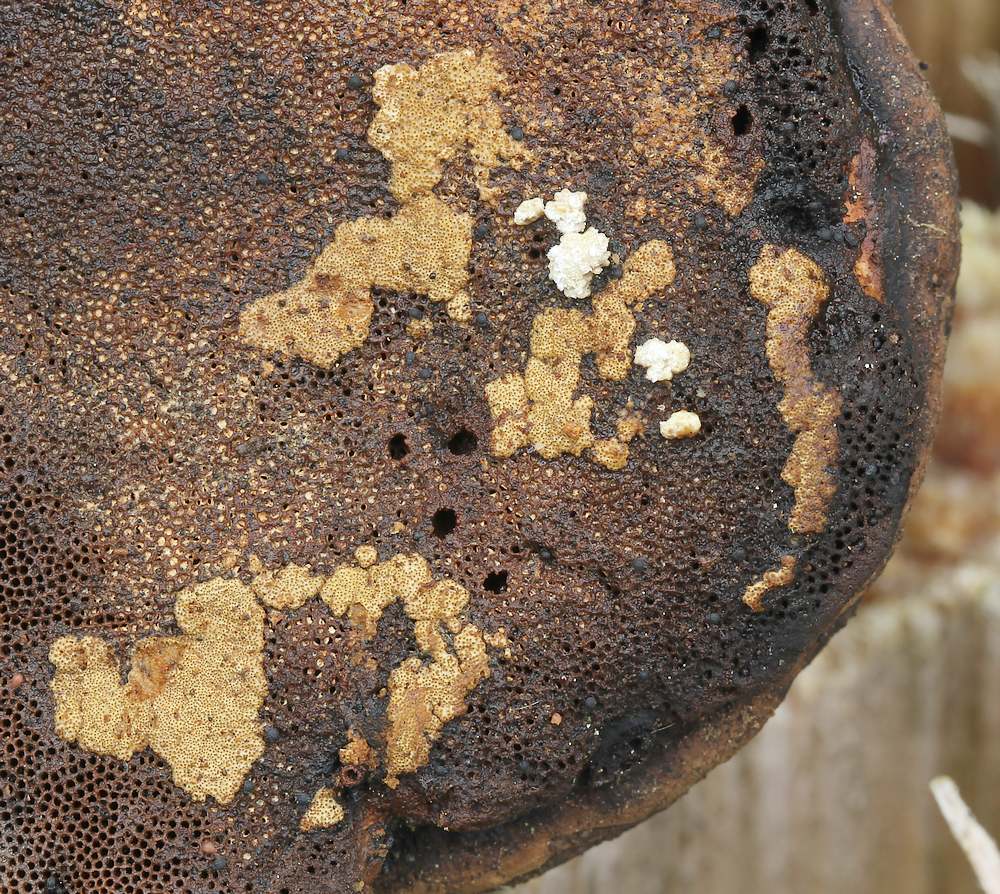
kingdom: Fungi
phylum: Ascomycota
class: Sordariomycetes
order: Hypocreales
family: Hypocreaceae
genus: Trichoderma
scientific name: Trichoderma pulvinatum
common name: snyltende kødkerne
